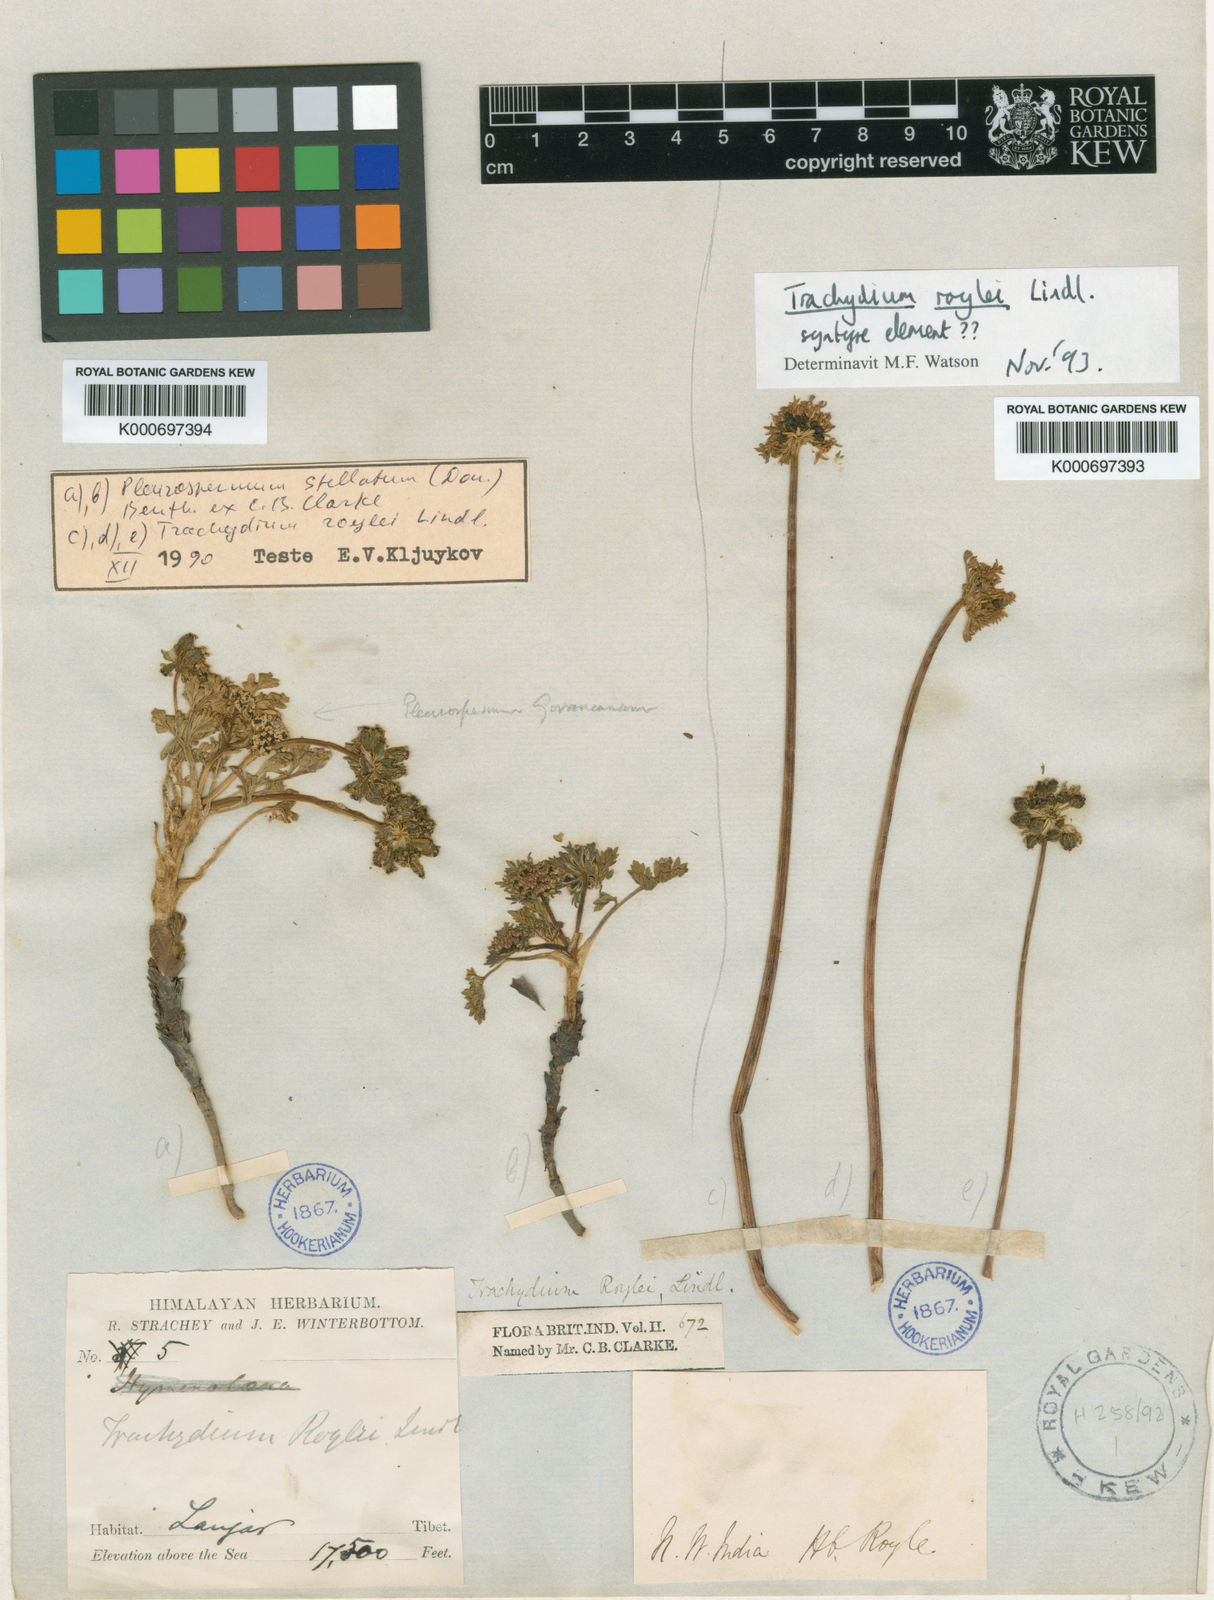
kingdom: Plantae
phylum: Tracheophyta
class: Magnoliopsida
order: Apiales
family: Apiaceae
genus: Trachydium
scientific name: Trachydium roylei
